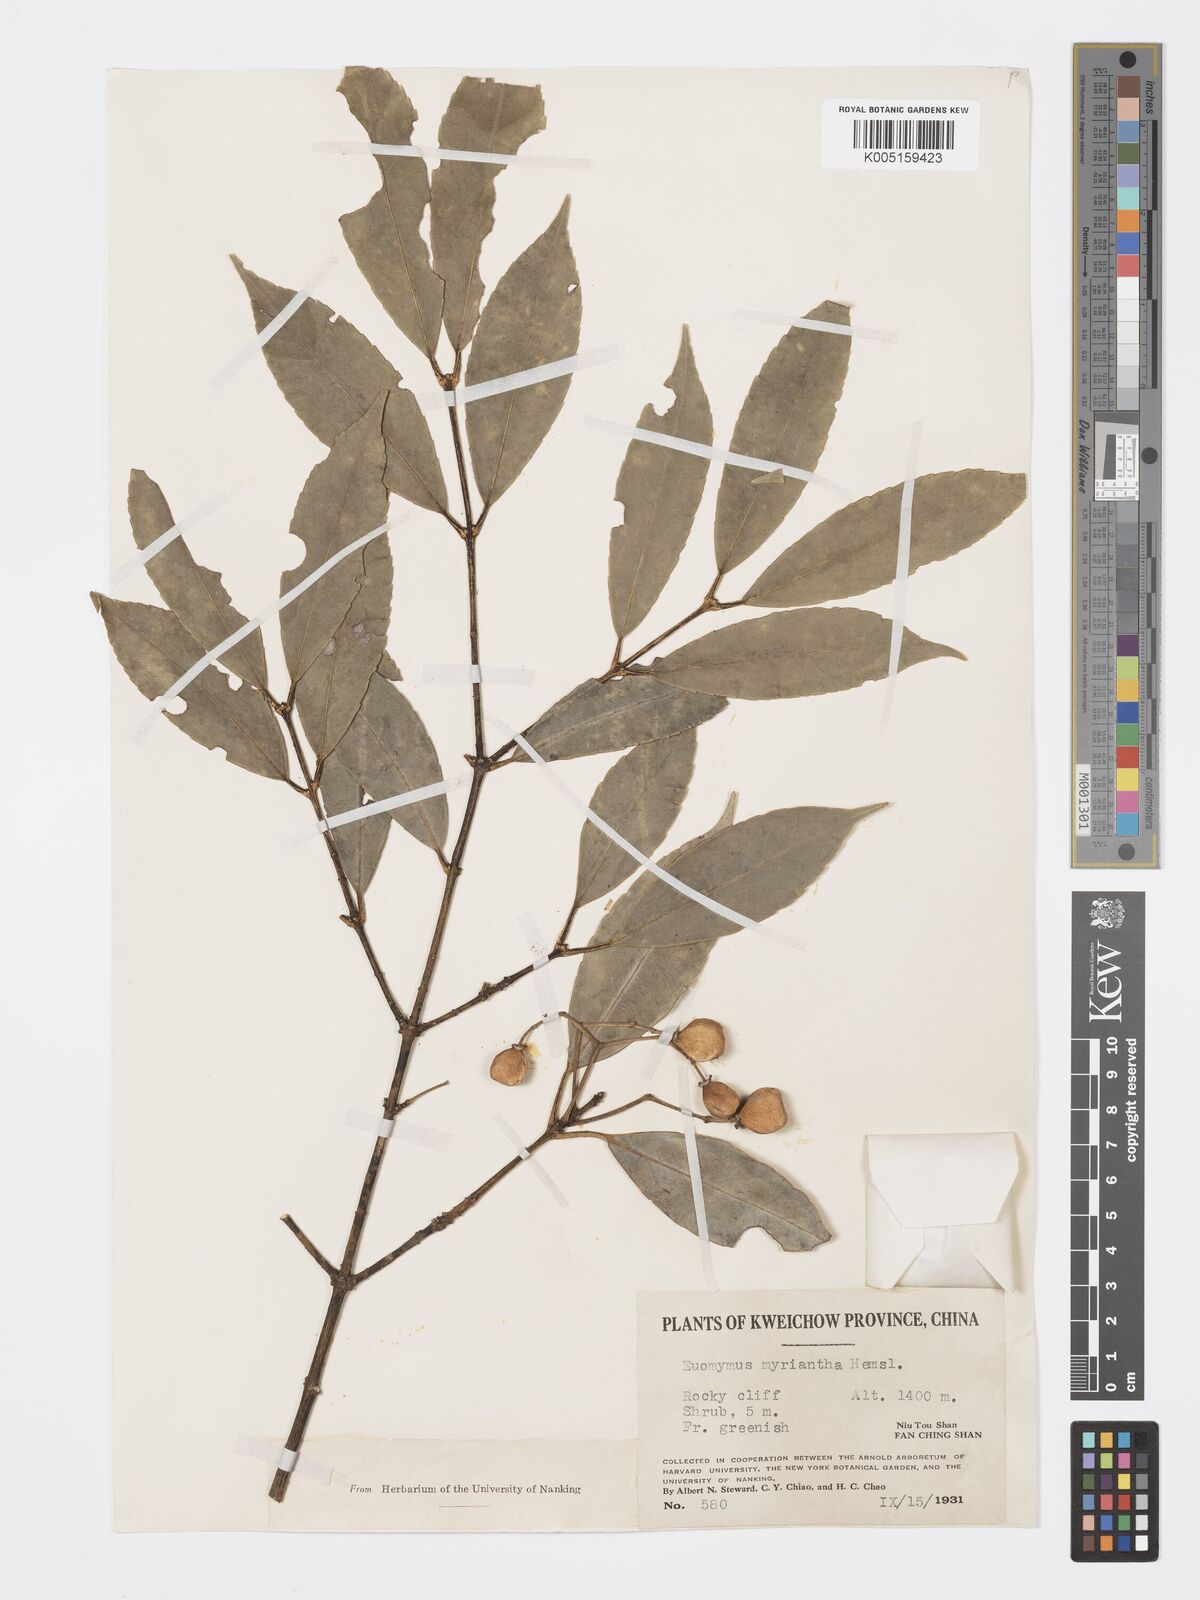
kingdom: Plantae
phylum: Tracheophyta
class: Magnoliopsida
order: Celastrales
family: Celastraceae
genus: Euonymus
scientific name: Euonymus myrianthus
